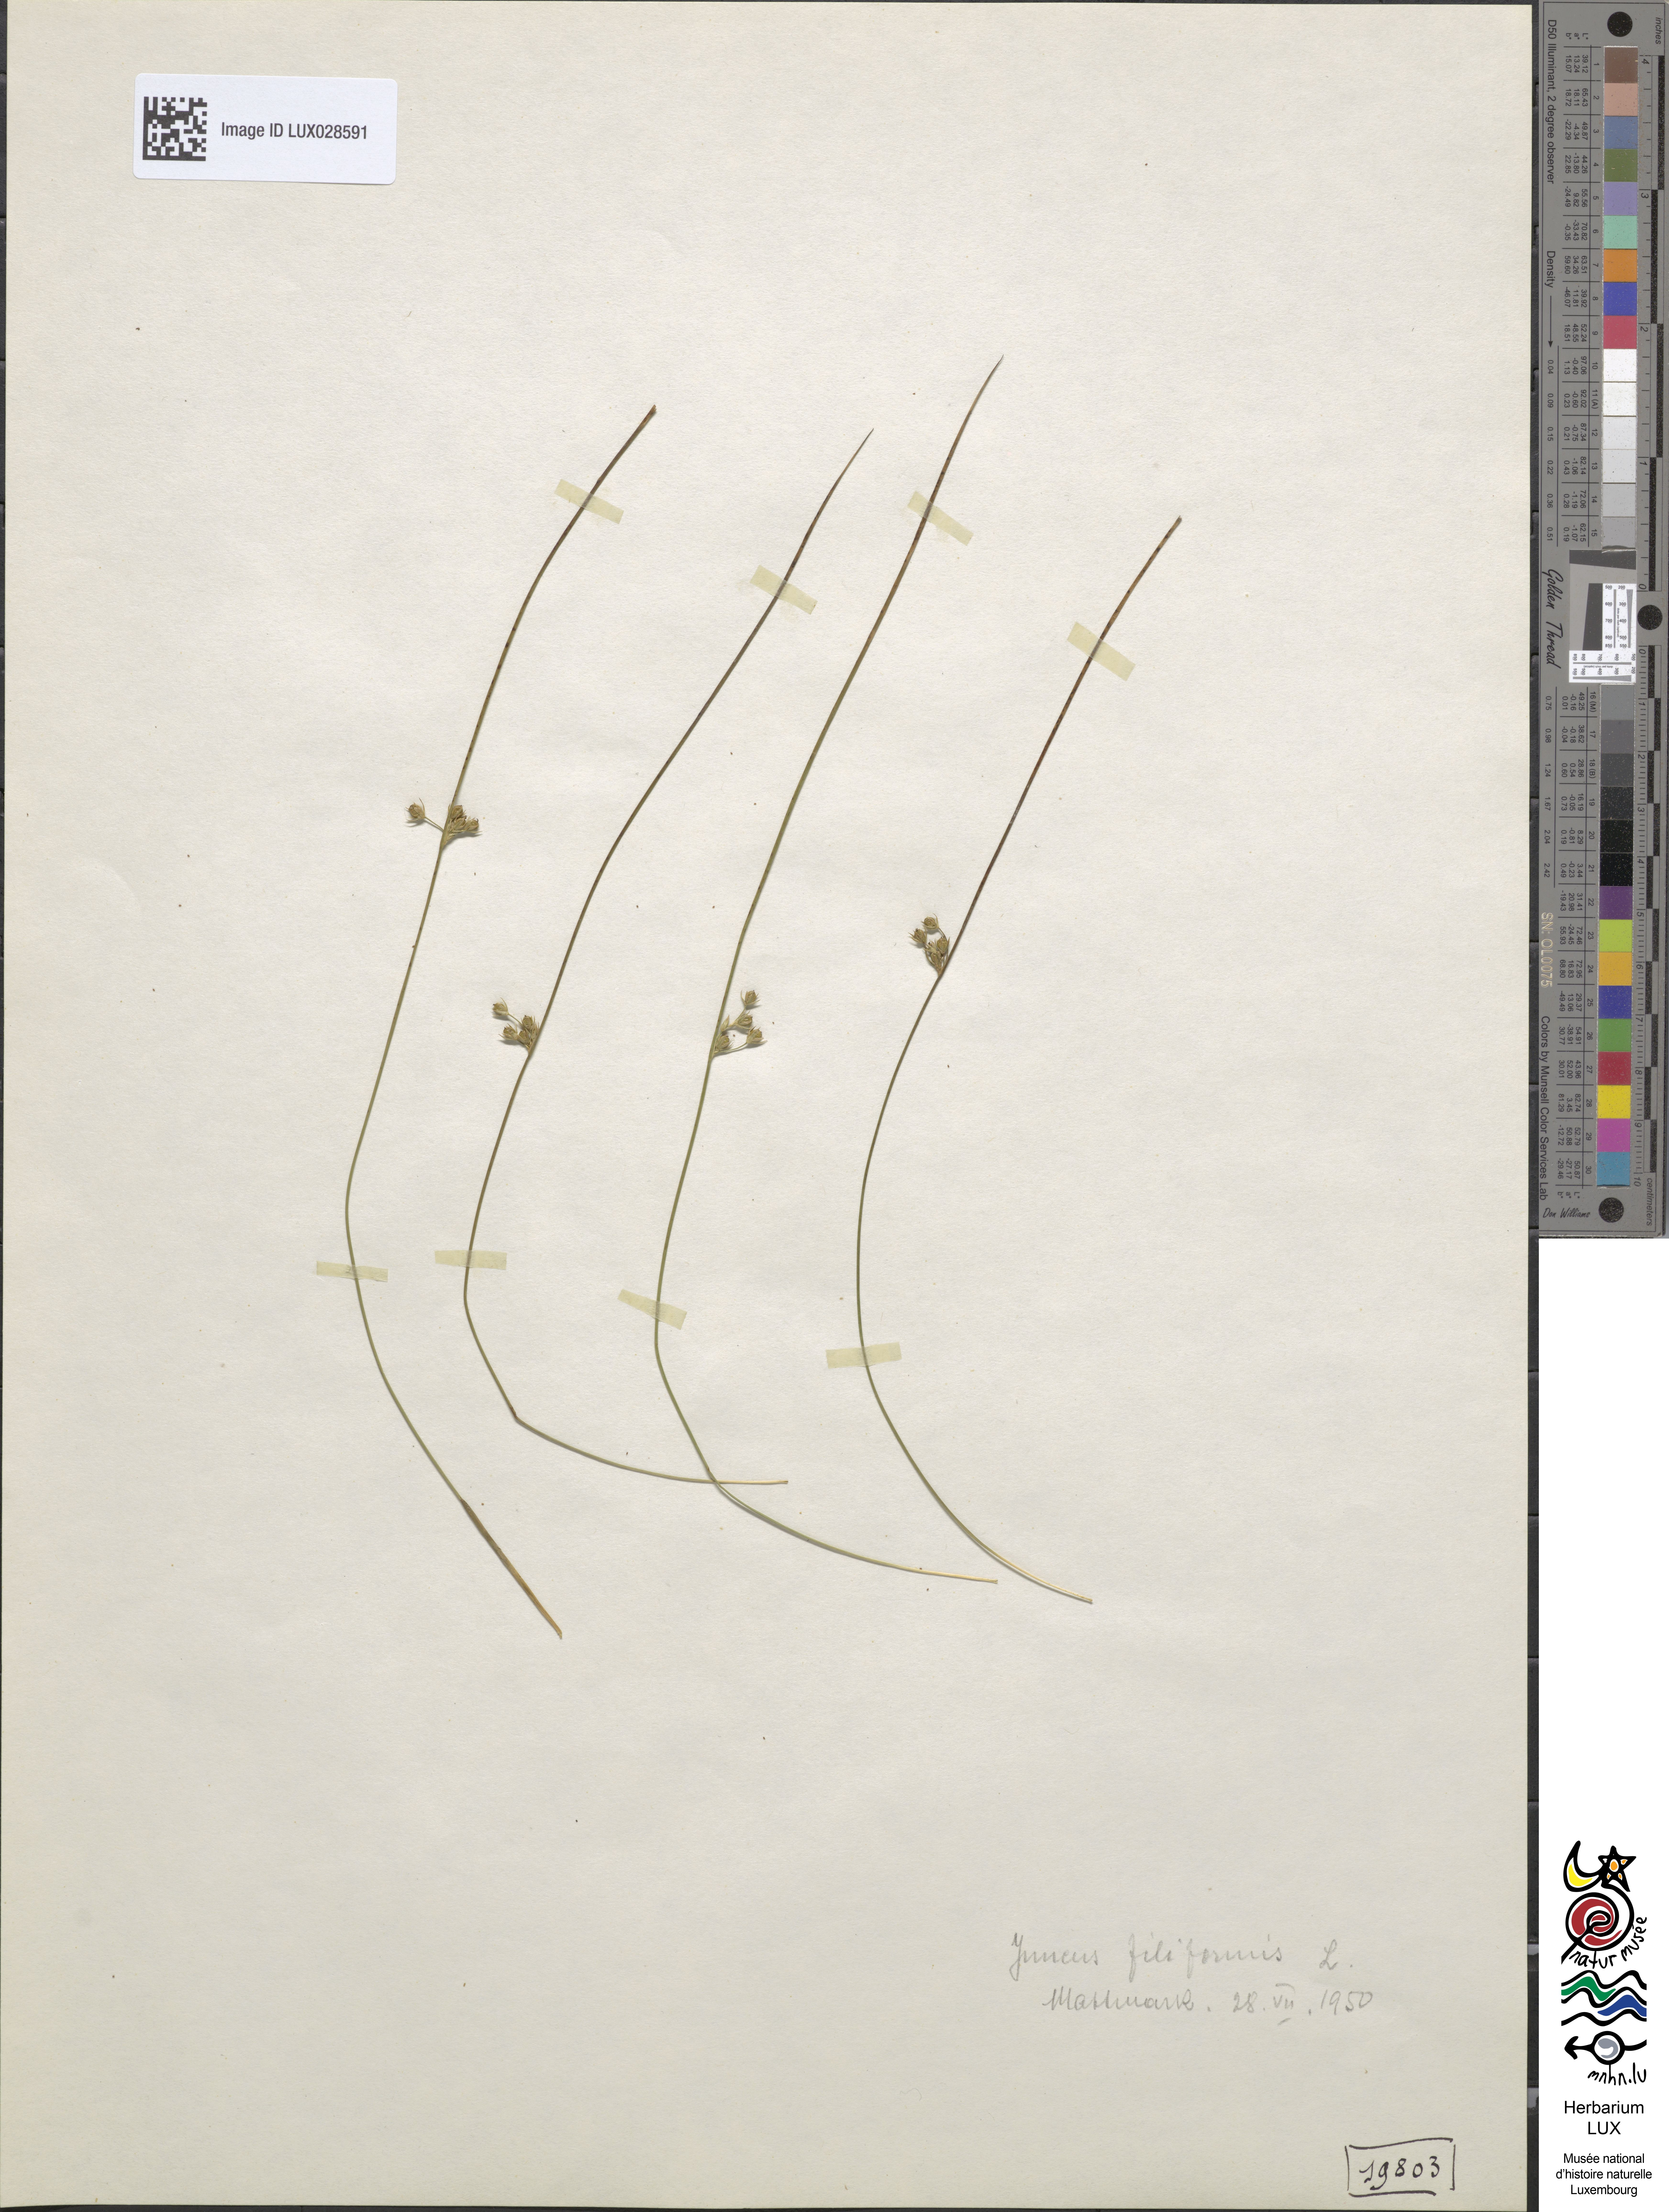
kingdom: Plantae
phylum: Tracheophyta
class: Liliopsida
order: Poales
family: Juncaceae
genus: Juncus
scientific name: Juncus filiformis
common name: Thread rush
